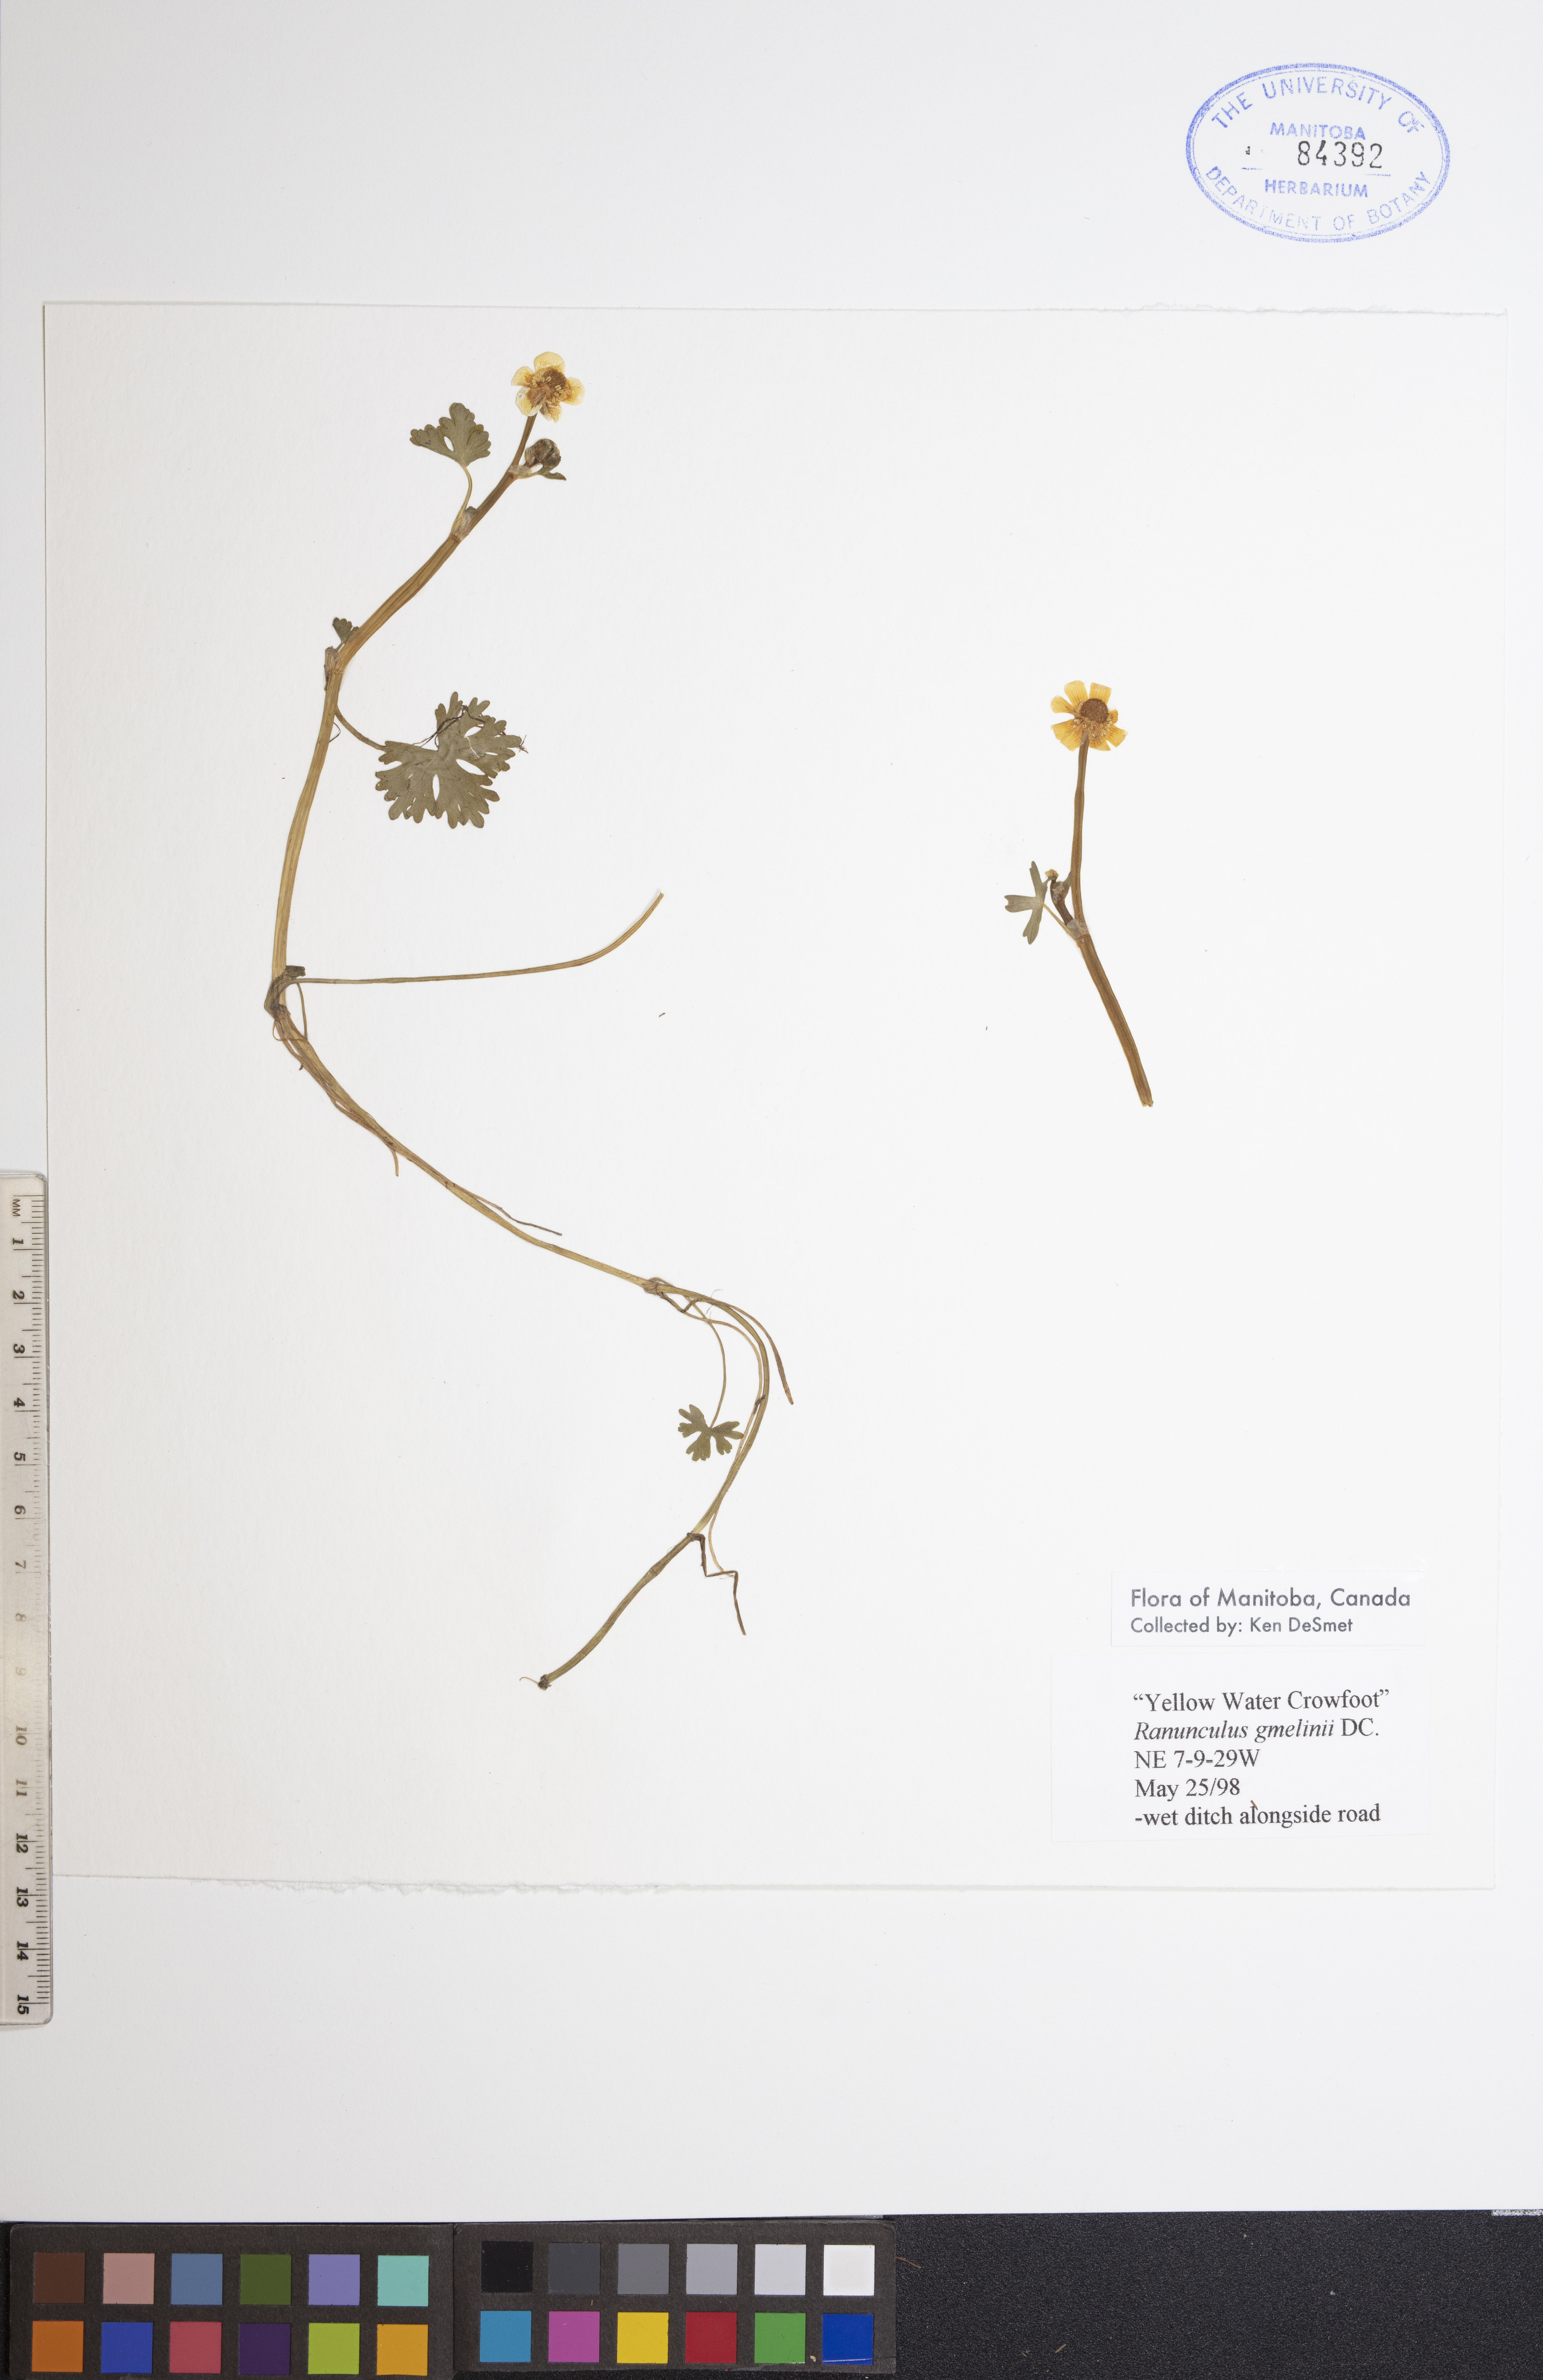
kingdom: Plantae
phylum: Tracheophyta
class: Magnoliopsida
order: Ranunculales
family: Ranunculaceae
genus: Ranunculus
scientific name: Ranunculus gmelinii
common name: Gmelin's buttercup
